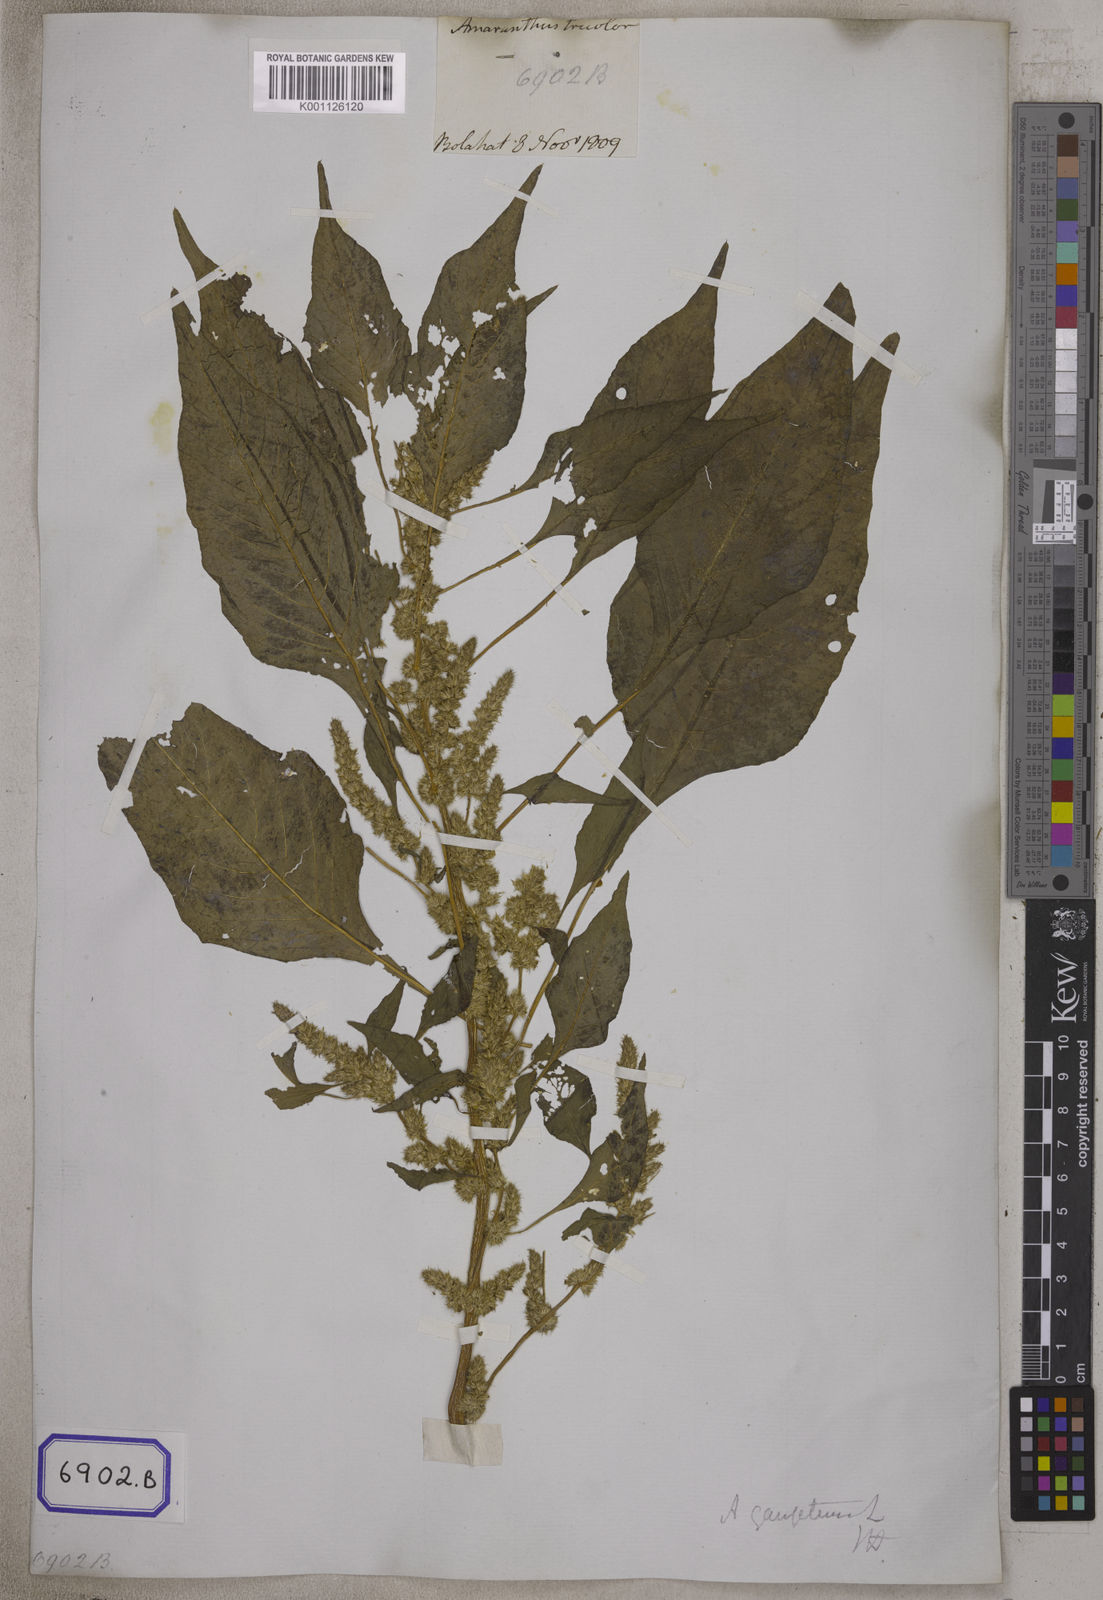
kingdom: Plantae
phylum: Tracheophyta
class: Magnoliopsida
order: Caryophyllales
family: Amaranthaceae
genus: Amaranthus
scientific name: Amaranthus tricolor
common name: Joseph's-coat
